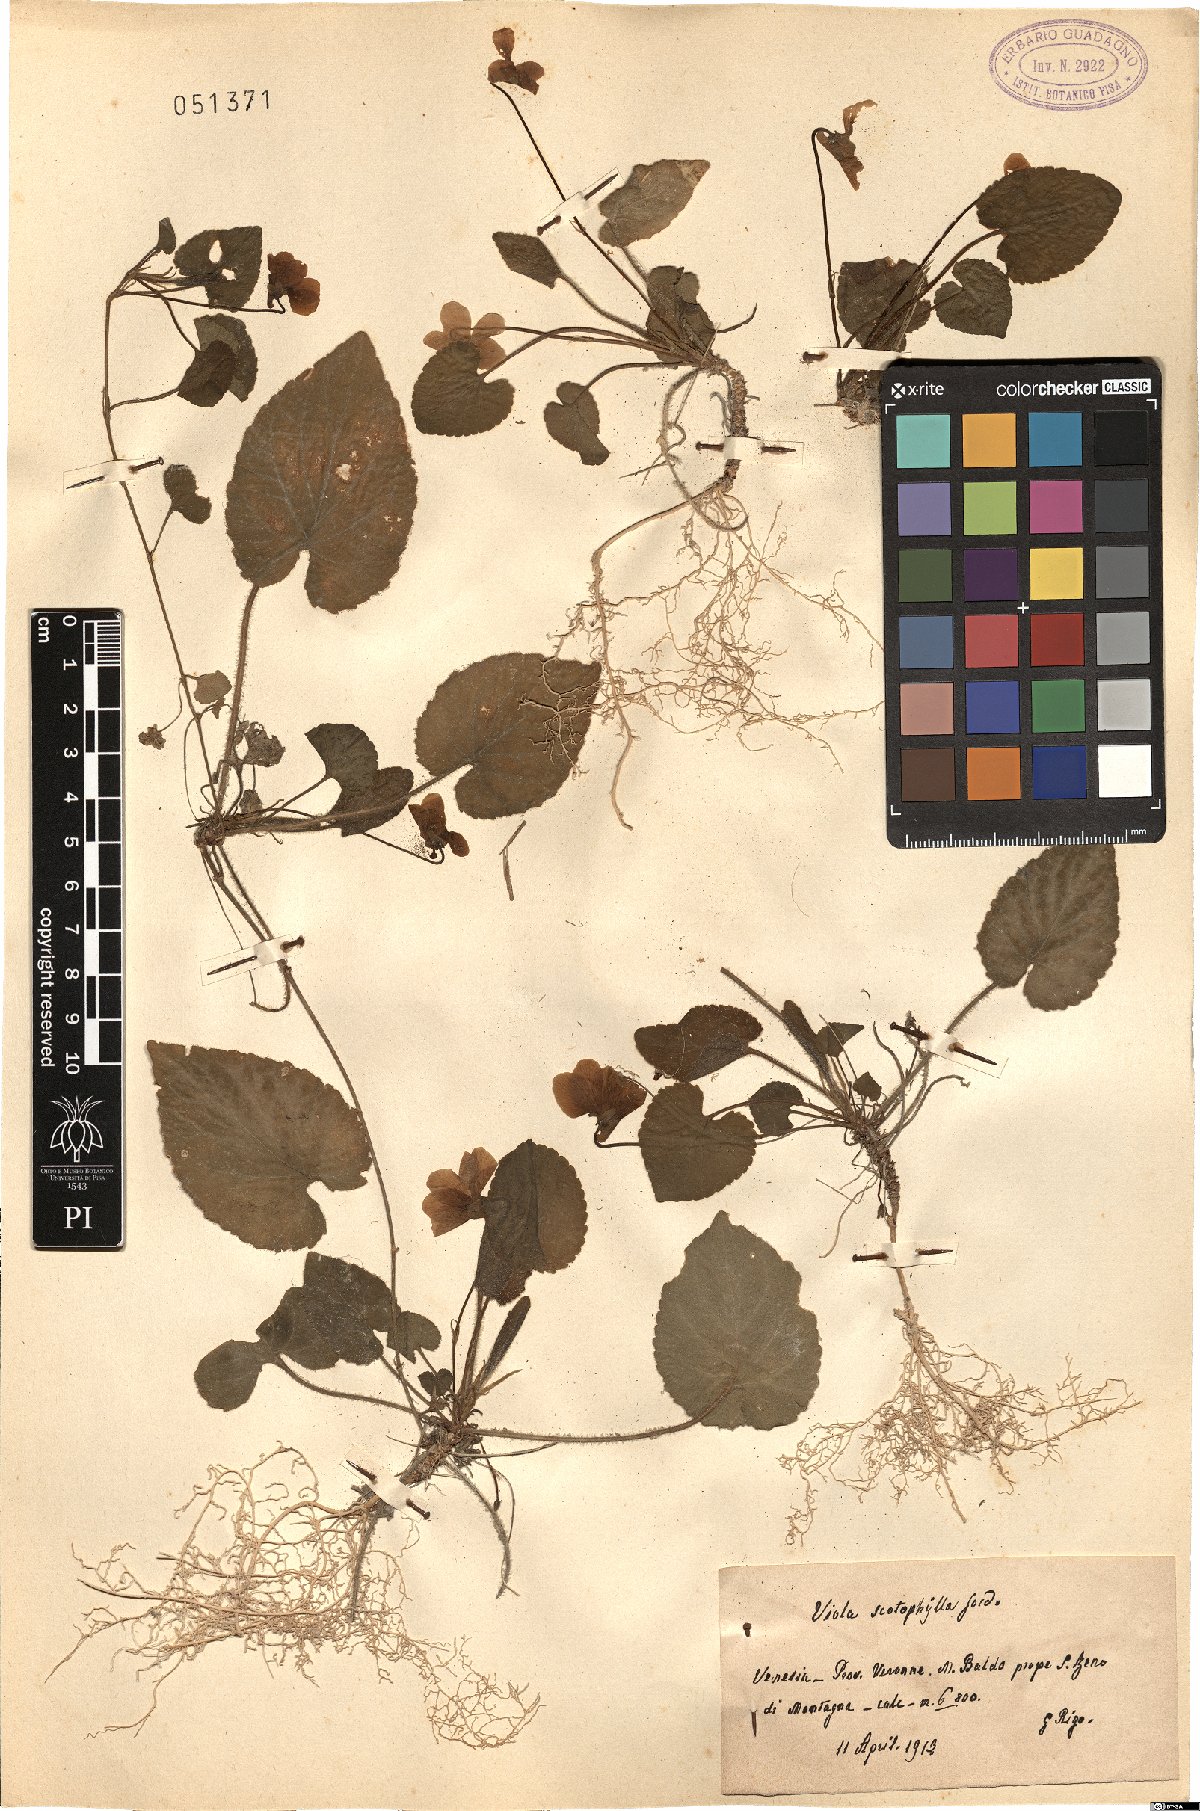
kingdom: Plantae
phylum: Tracheophyta
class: Magnoliopsida
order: Malpighiales
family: Violaceae
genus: Viola
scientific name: Viola alba
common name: White violet
